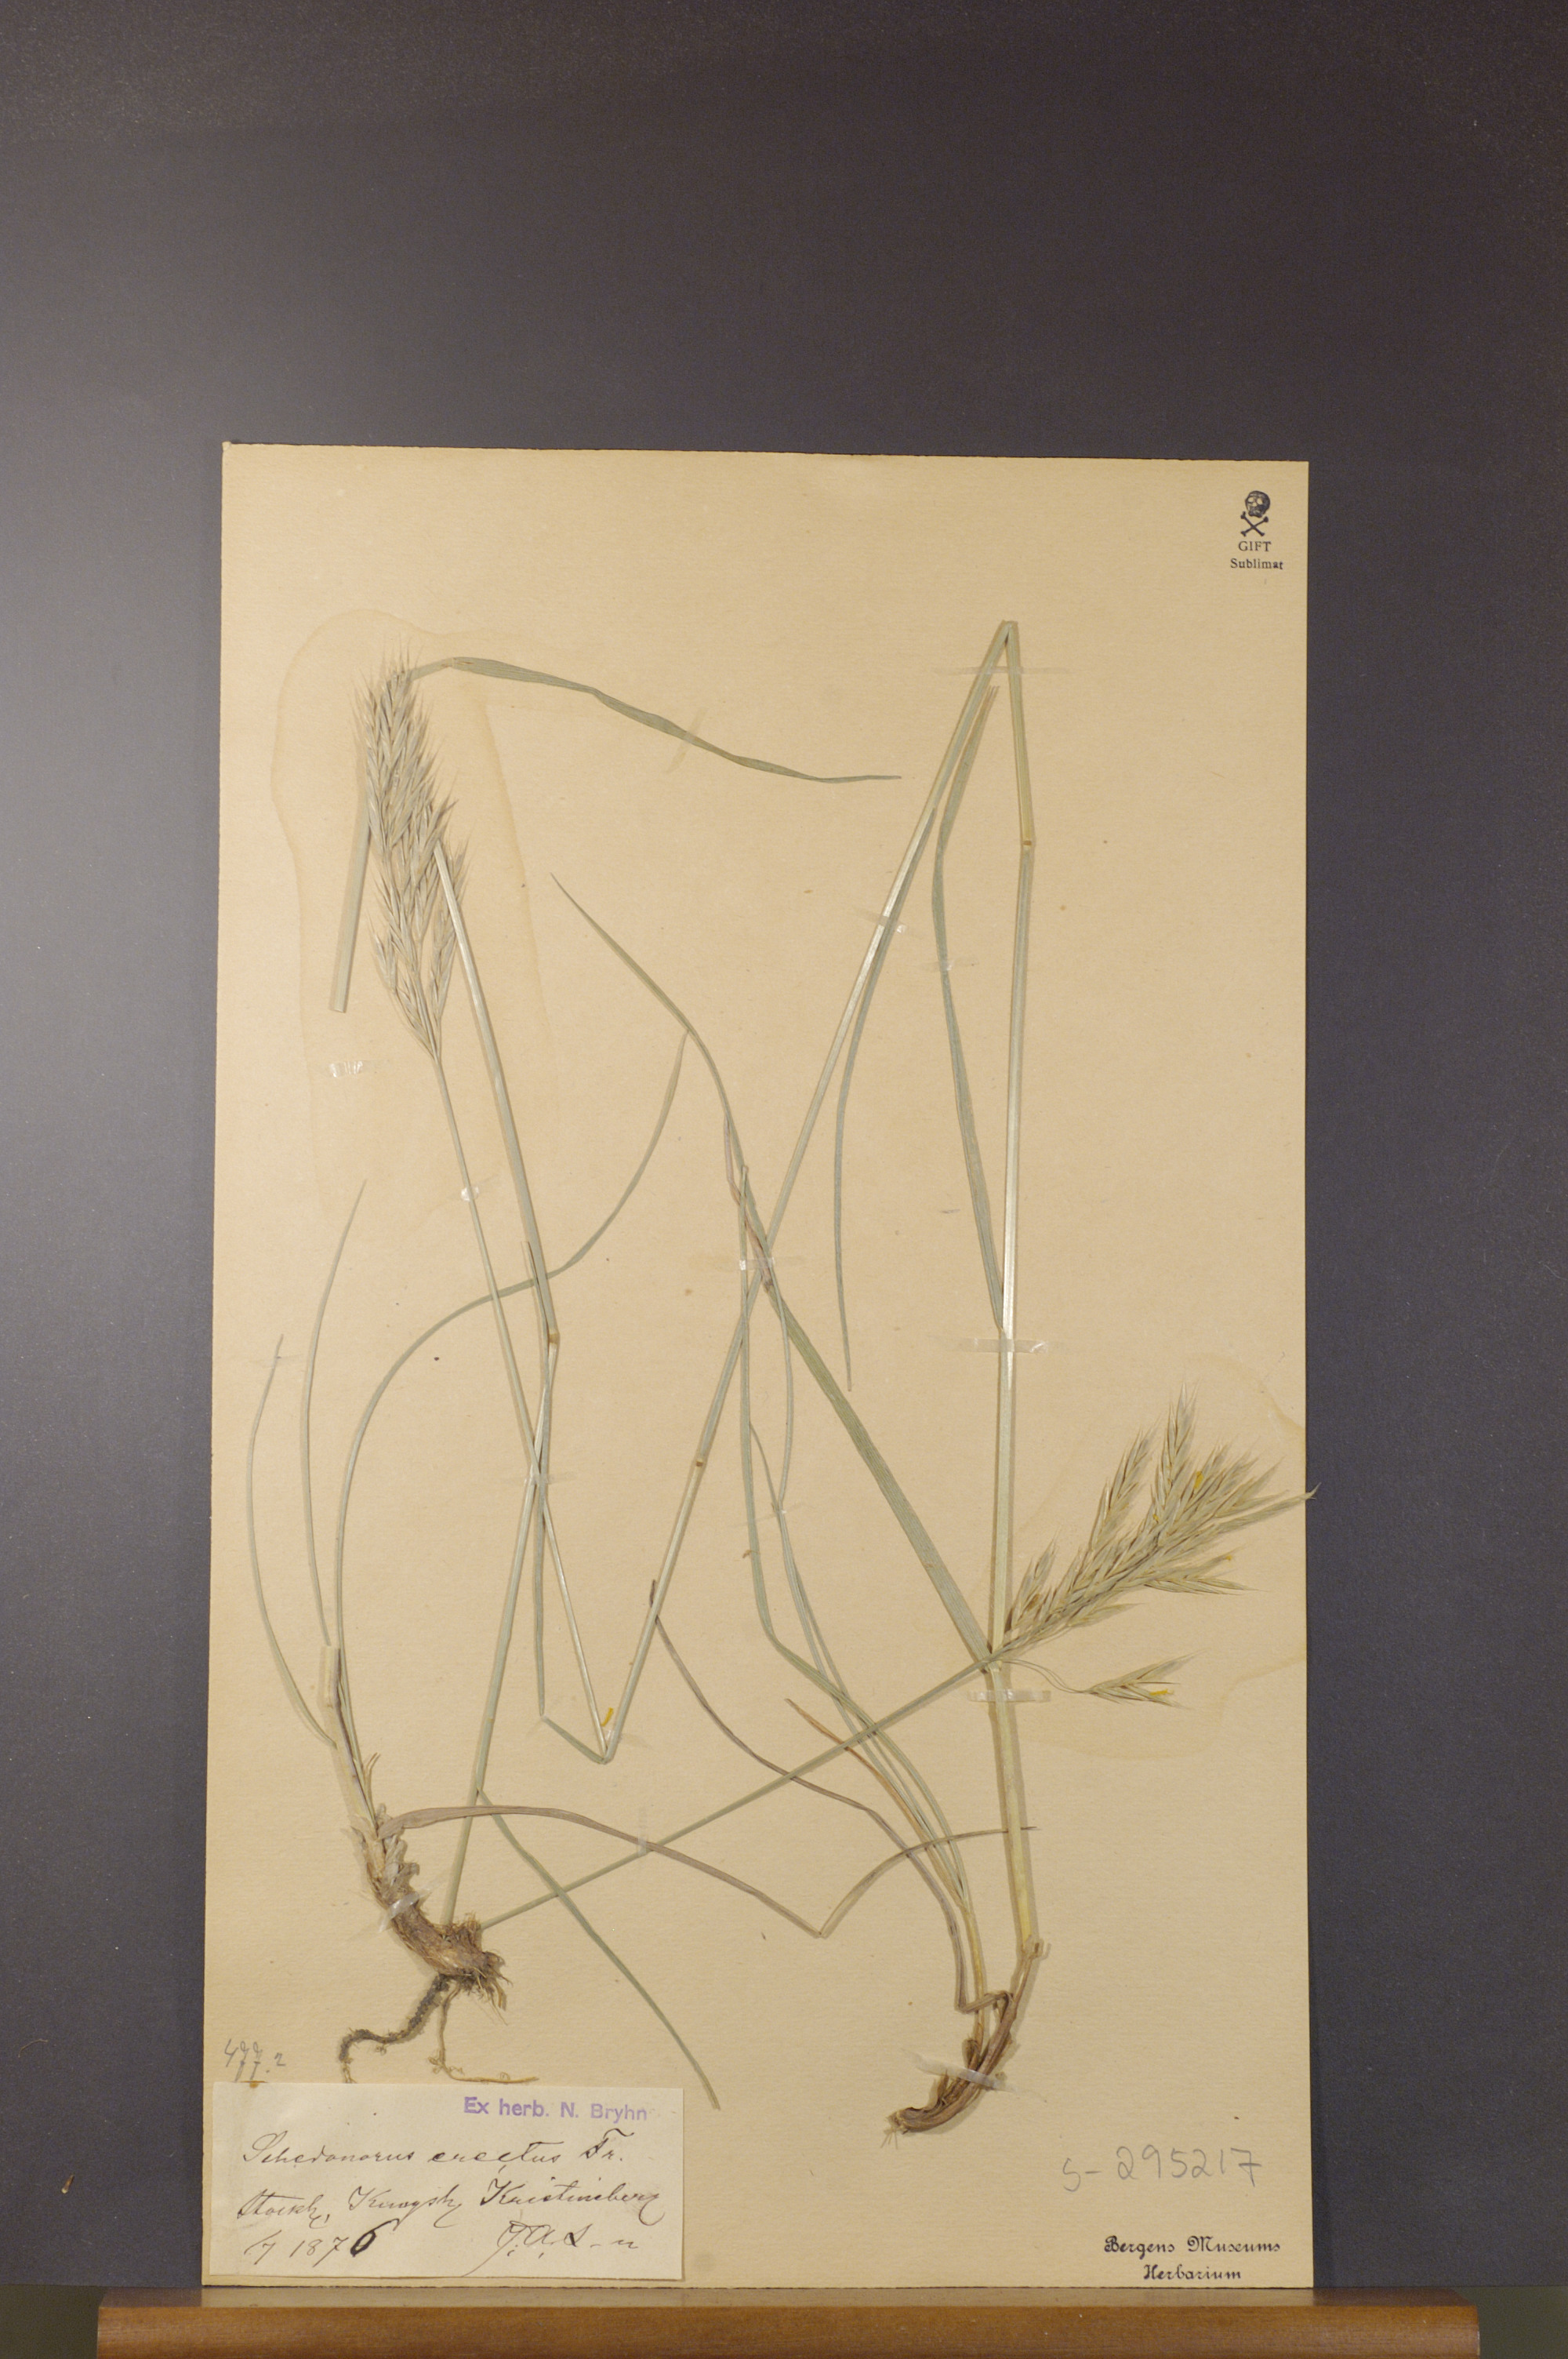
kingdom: Plantae
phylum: Tracheophyta
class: Liliopsida
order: Poales
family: Poaceae
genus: Bromus
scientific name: Bromus erectus
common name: Erect brome
